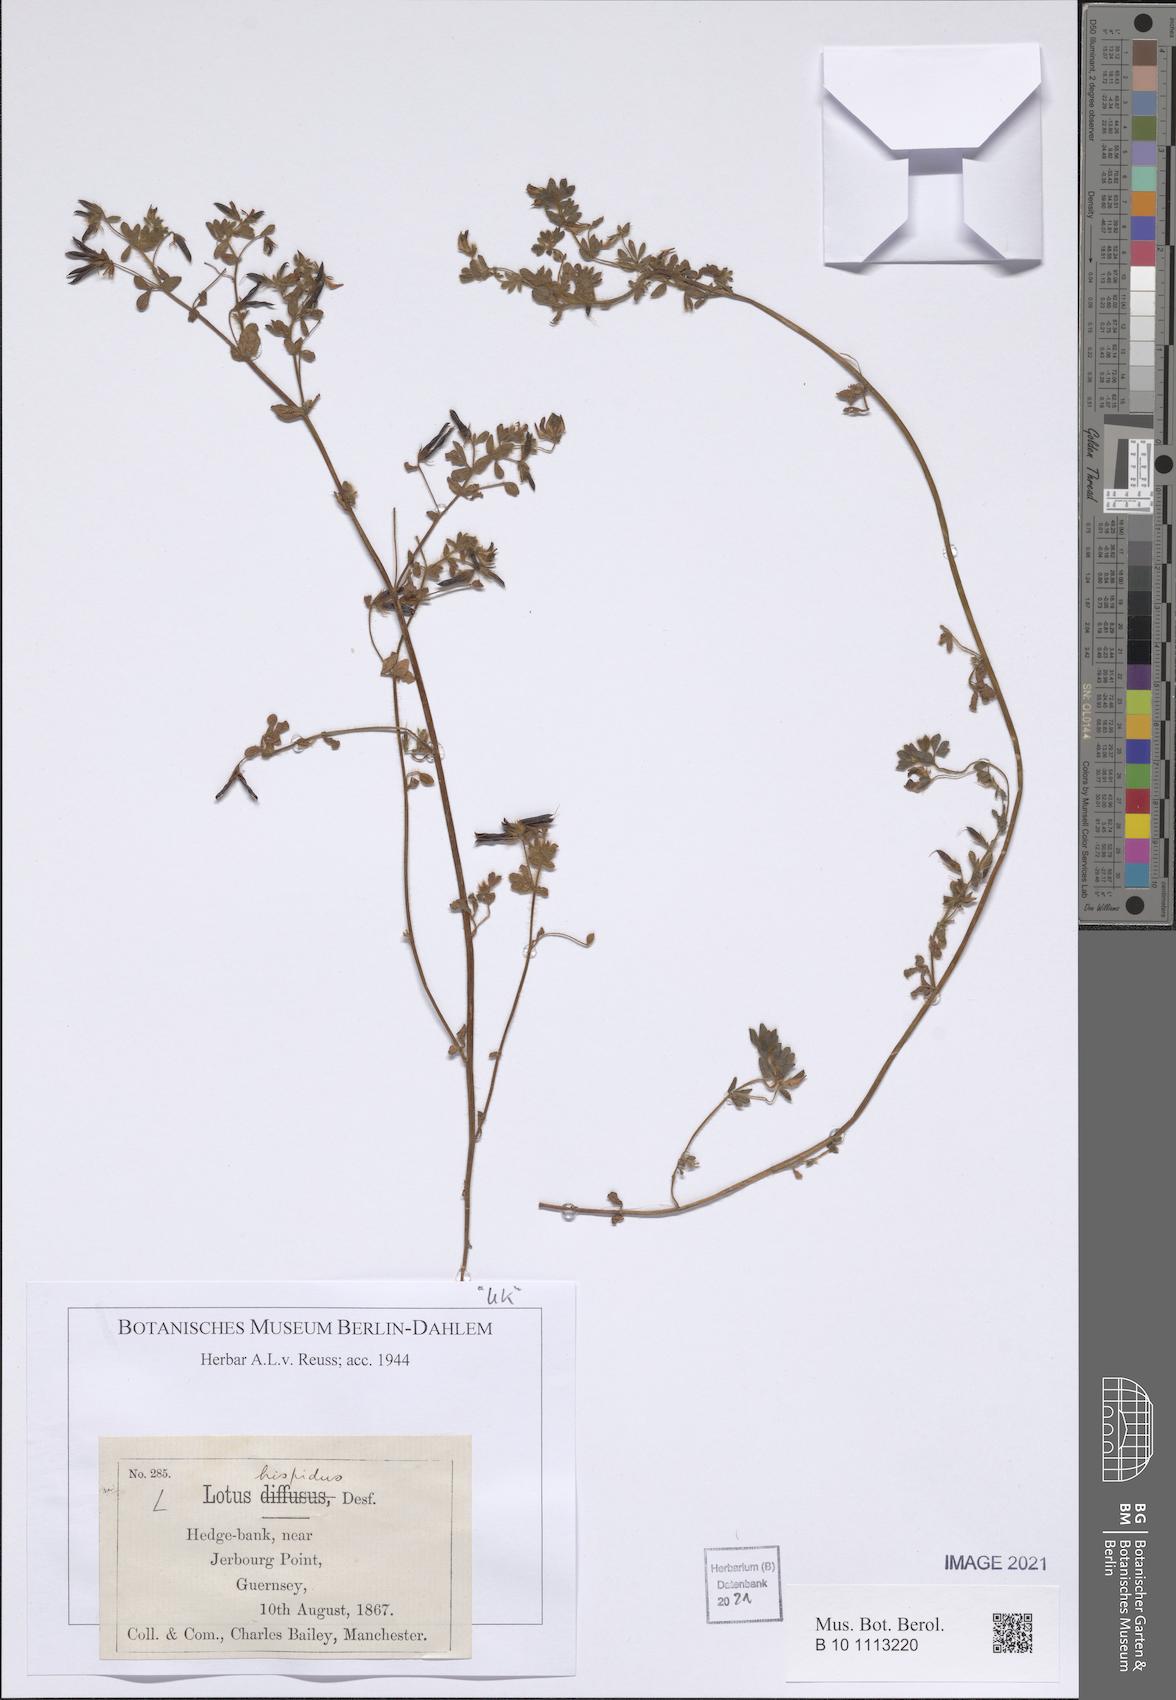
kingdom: Plantae
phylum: Tracheophyta
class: Magnoliopsida
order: Fabales
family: Fabaceae
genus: Lotus
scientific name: Lotus parviflorus
